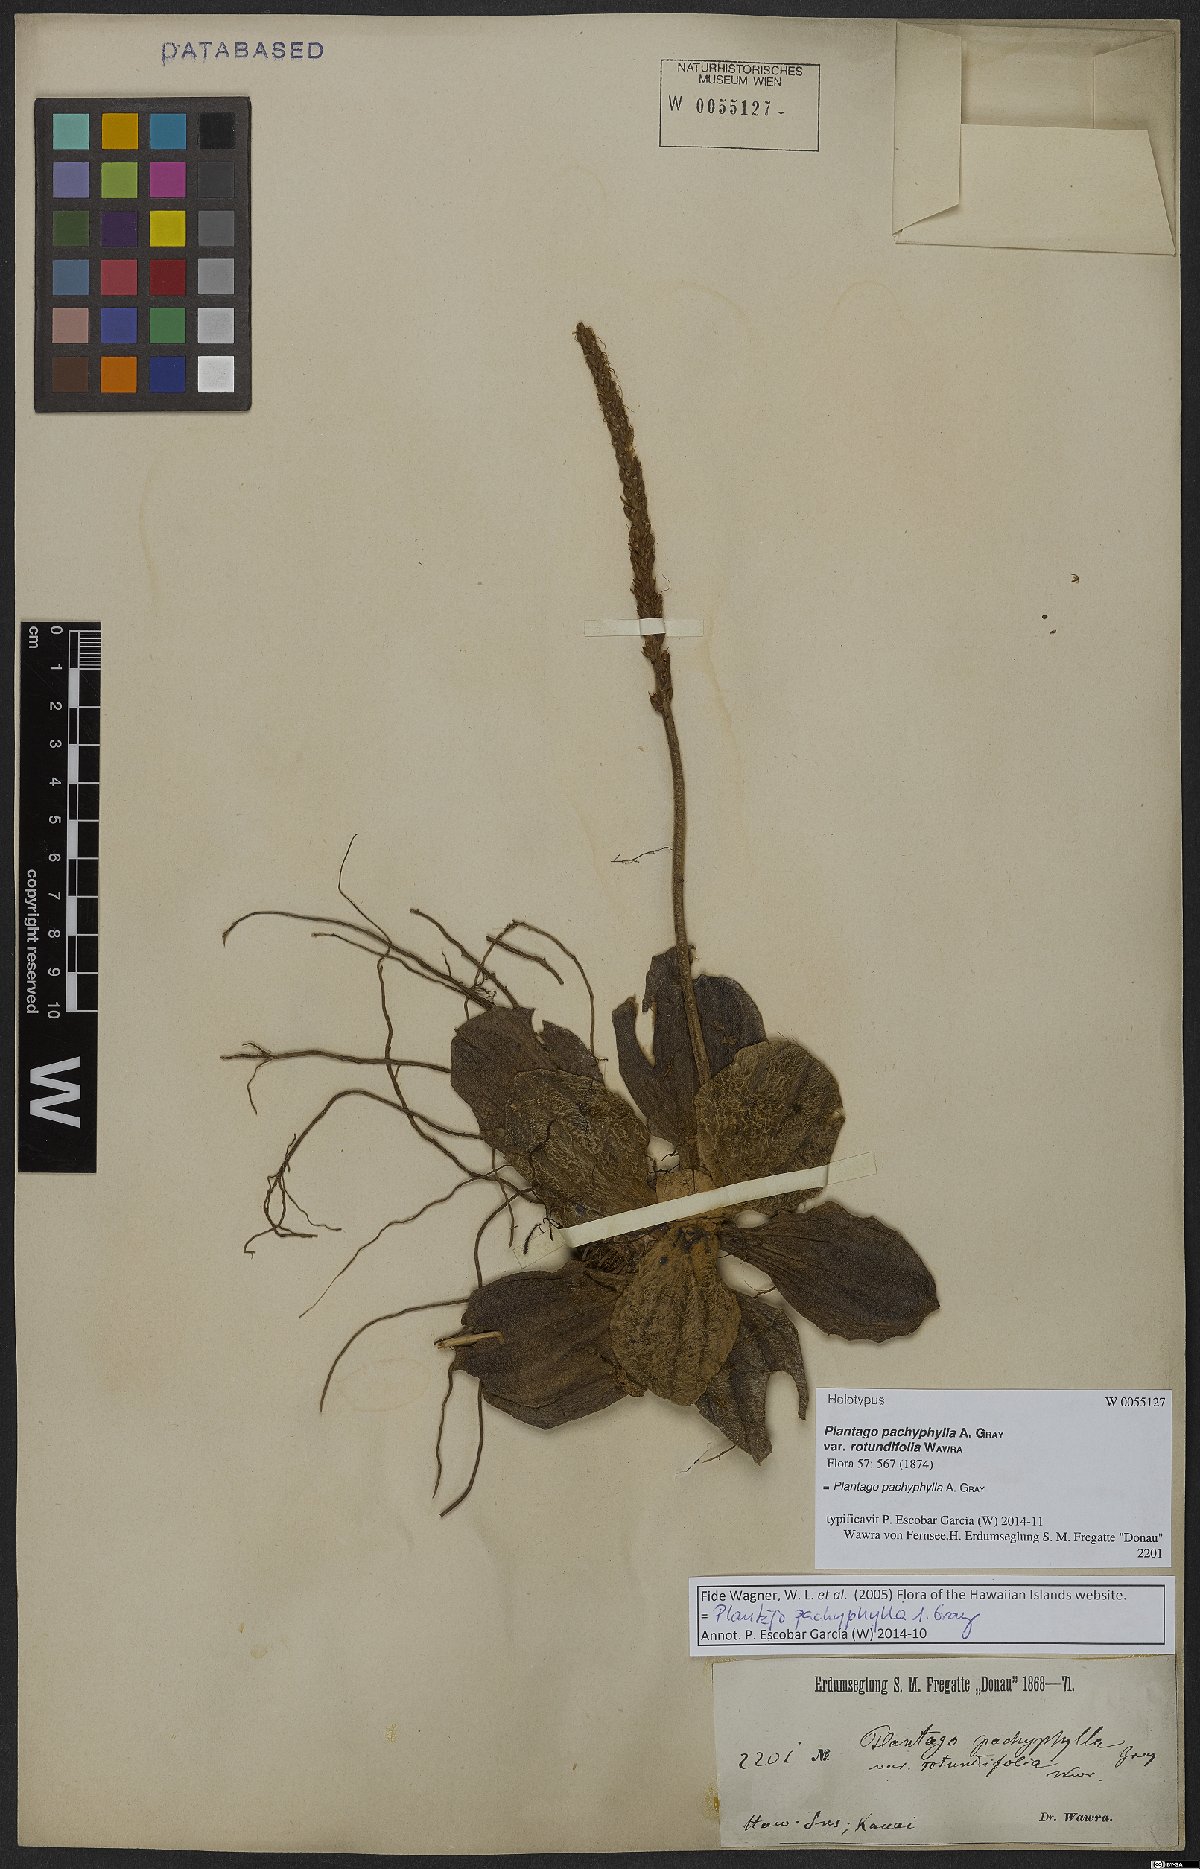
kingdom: Plantae
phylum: Tracheophyta
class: Magnoliopsida
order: Lamiales
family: Plantaginaceae
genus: Plantago
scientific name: Plantago pachyphylla
